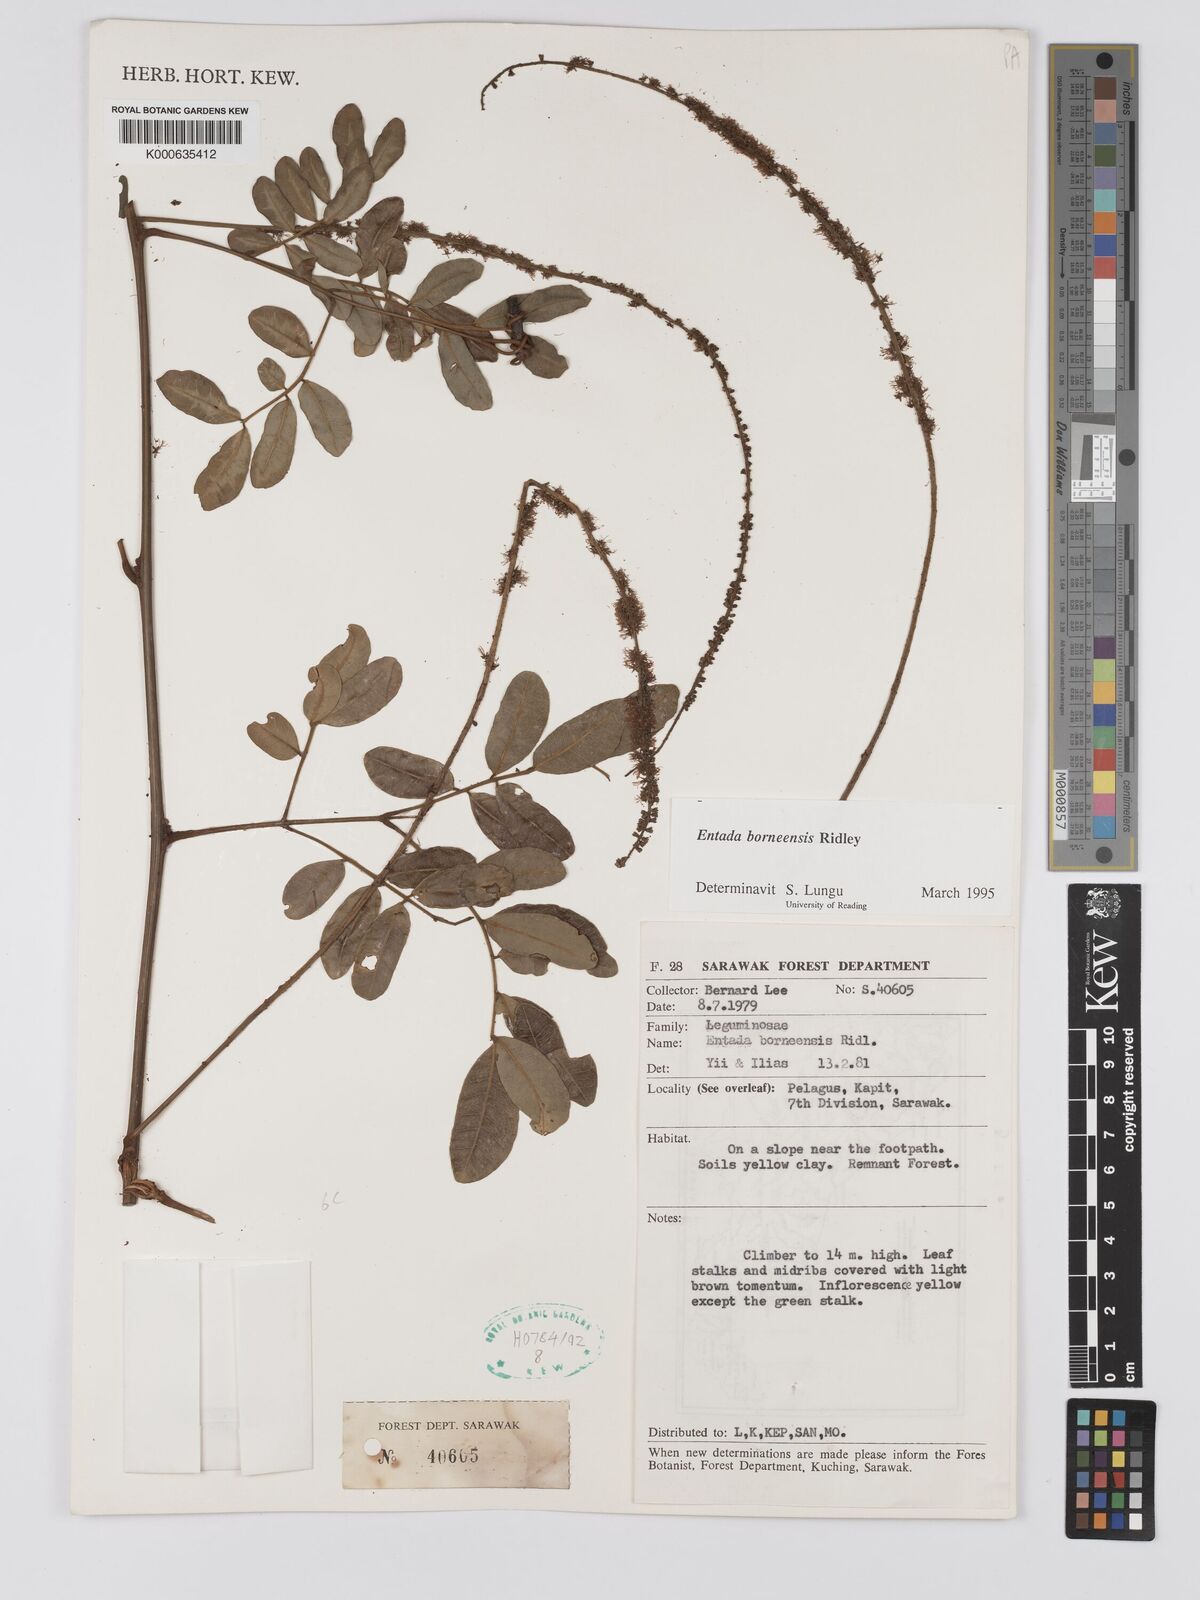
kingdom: Plantae
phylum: Tracheophyta
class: Magnoliopsida
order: Fabales
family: Fabaceae
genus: Entada
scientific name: Entada borneensis
